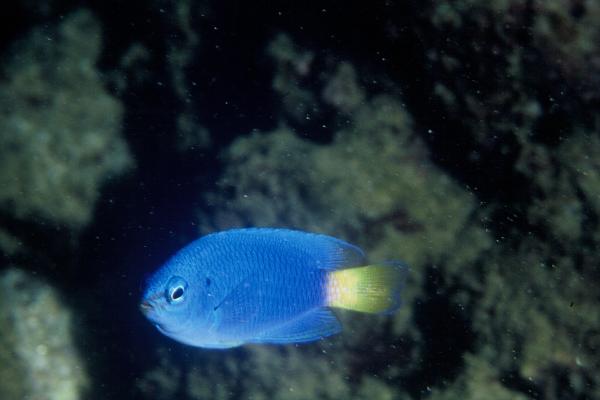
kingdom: Animalia
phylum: Chordata
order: Perciformes
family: Pomacentridae
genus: Pomacentrus
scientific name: Pomacentrus caeruleus
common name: Caerulean damsel
